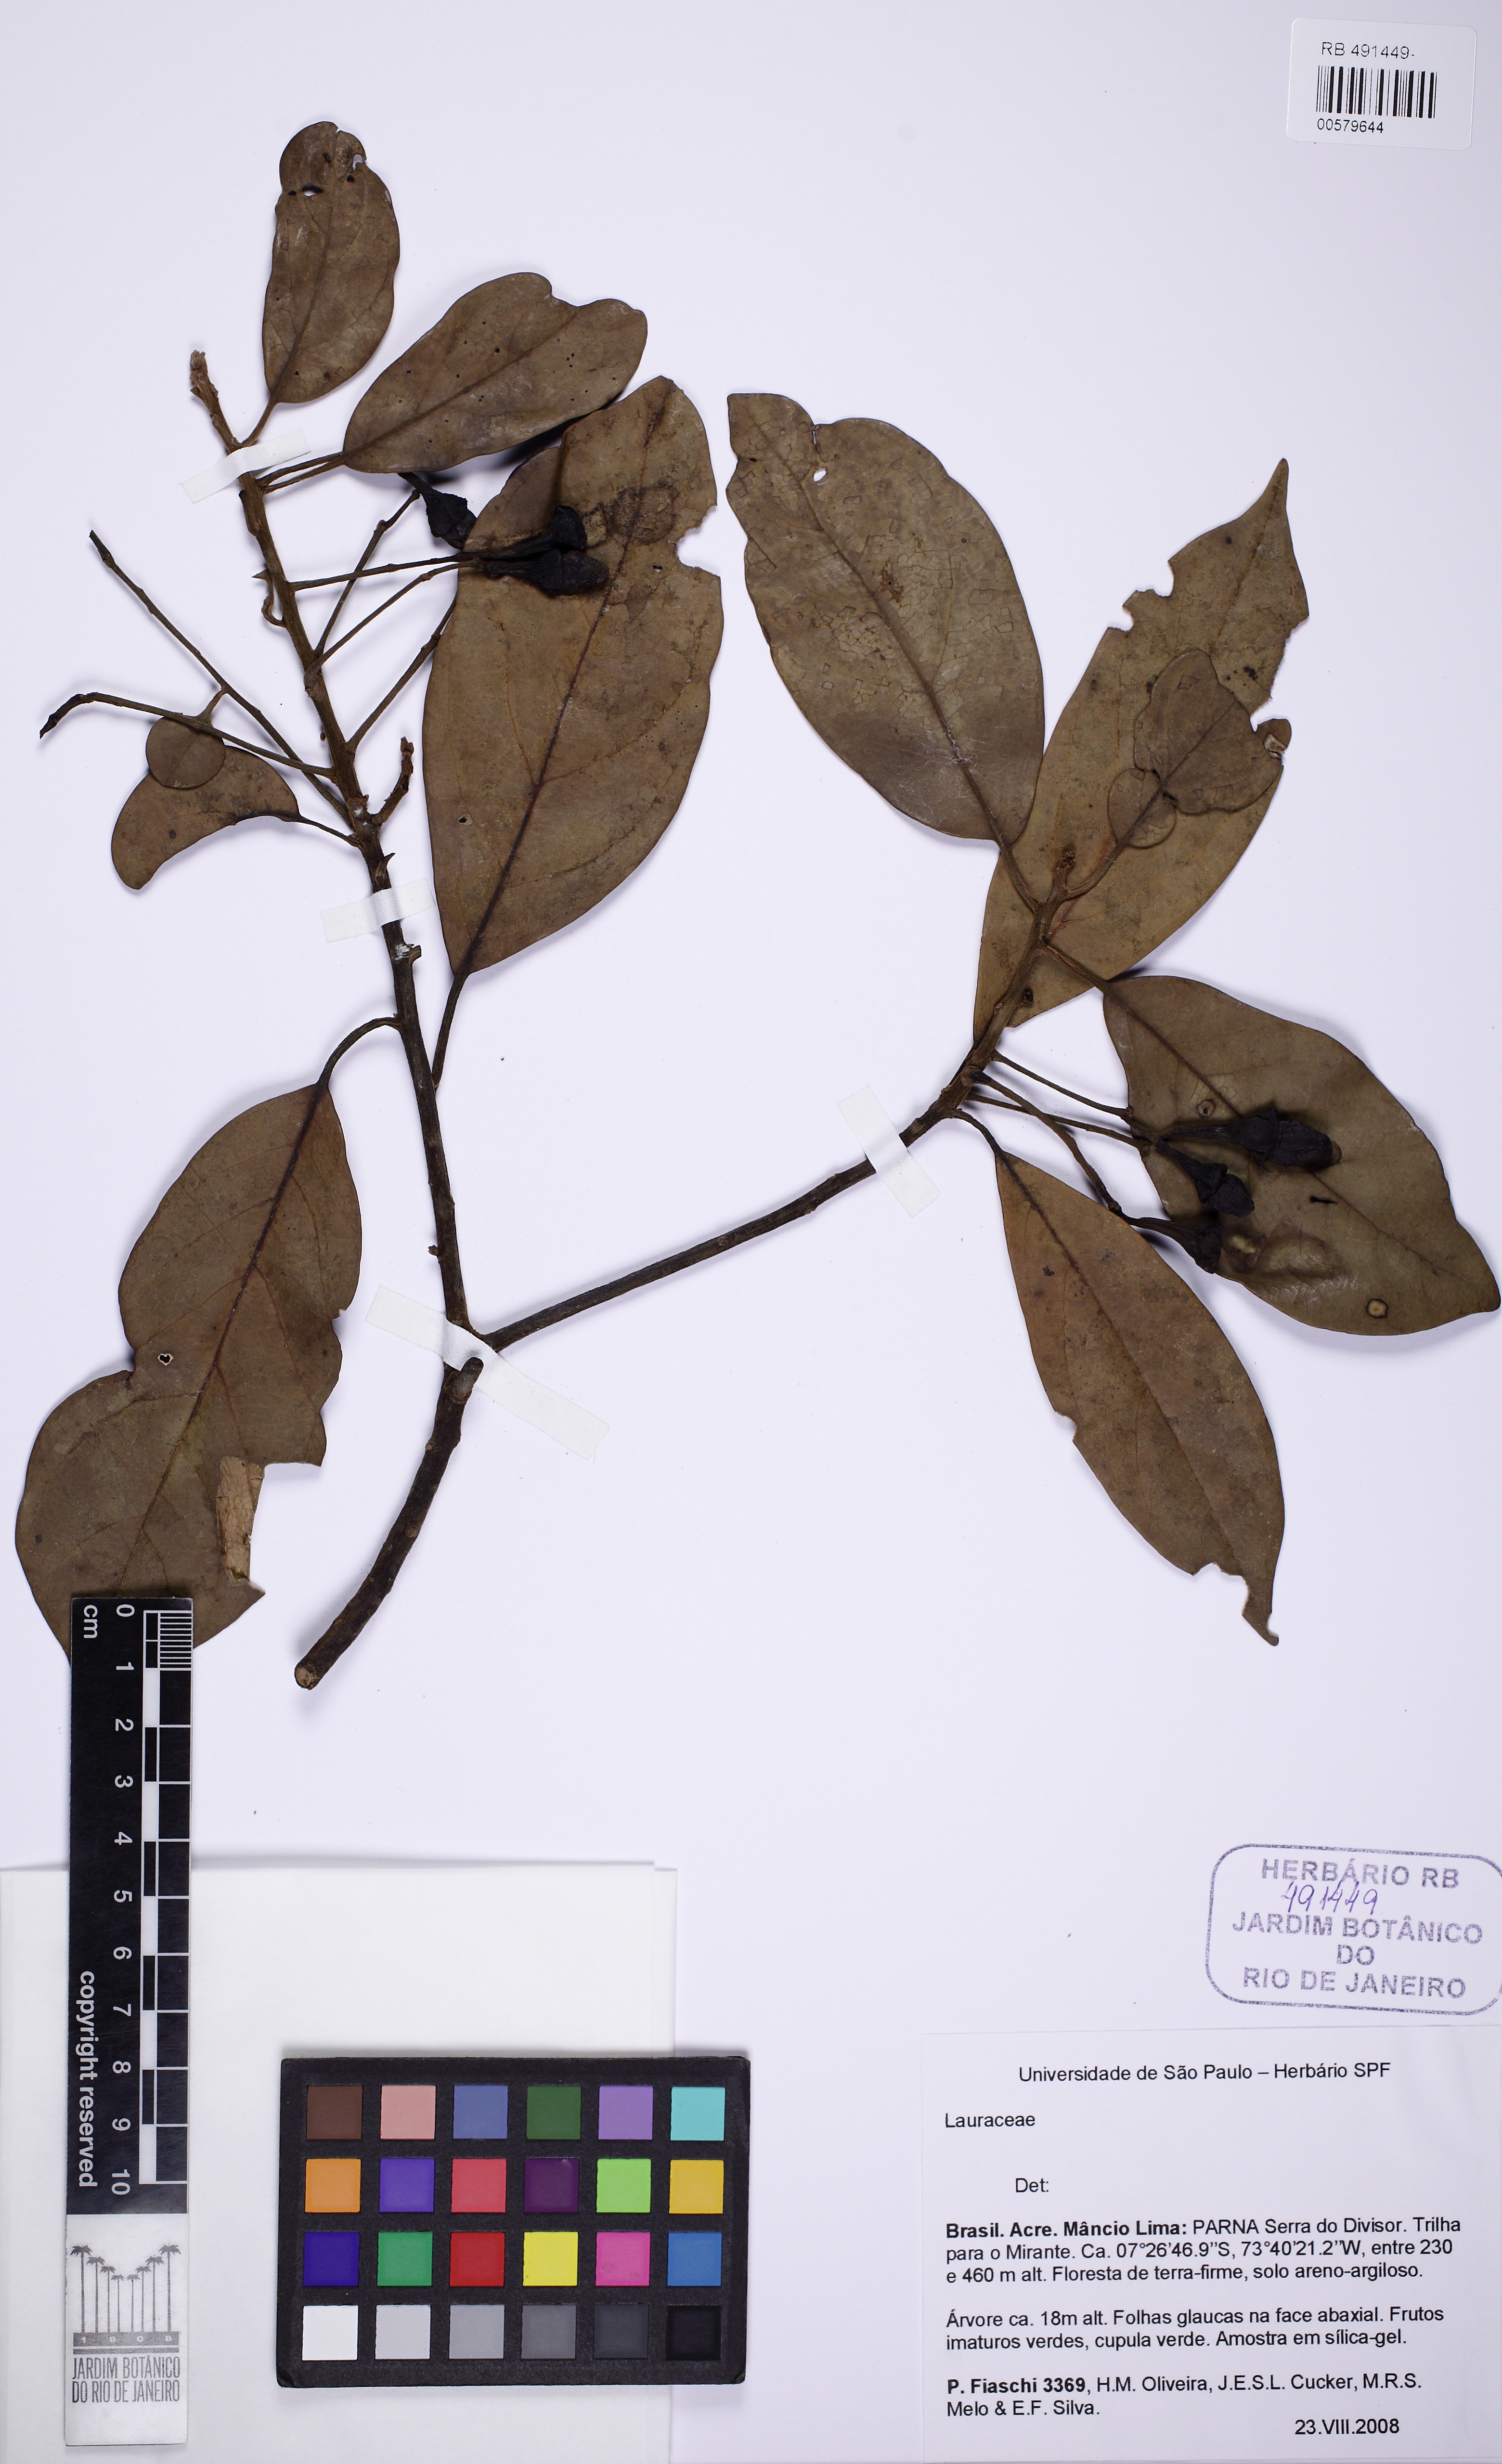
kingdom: Plantae
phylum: Tracheophyta
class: Magnoliopsida
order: Laurales
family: Lauraceae
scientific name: Lauraceae
